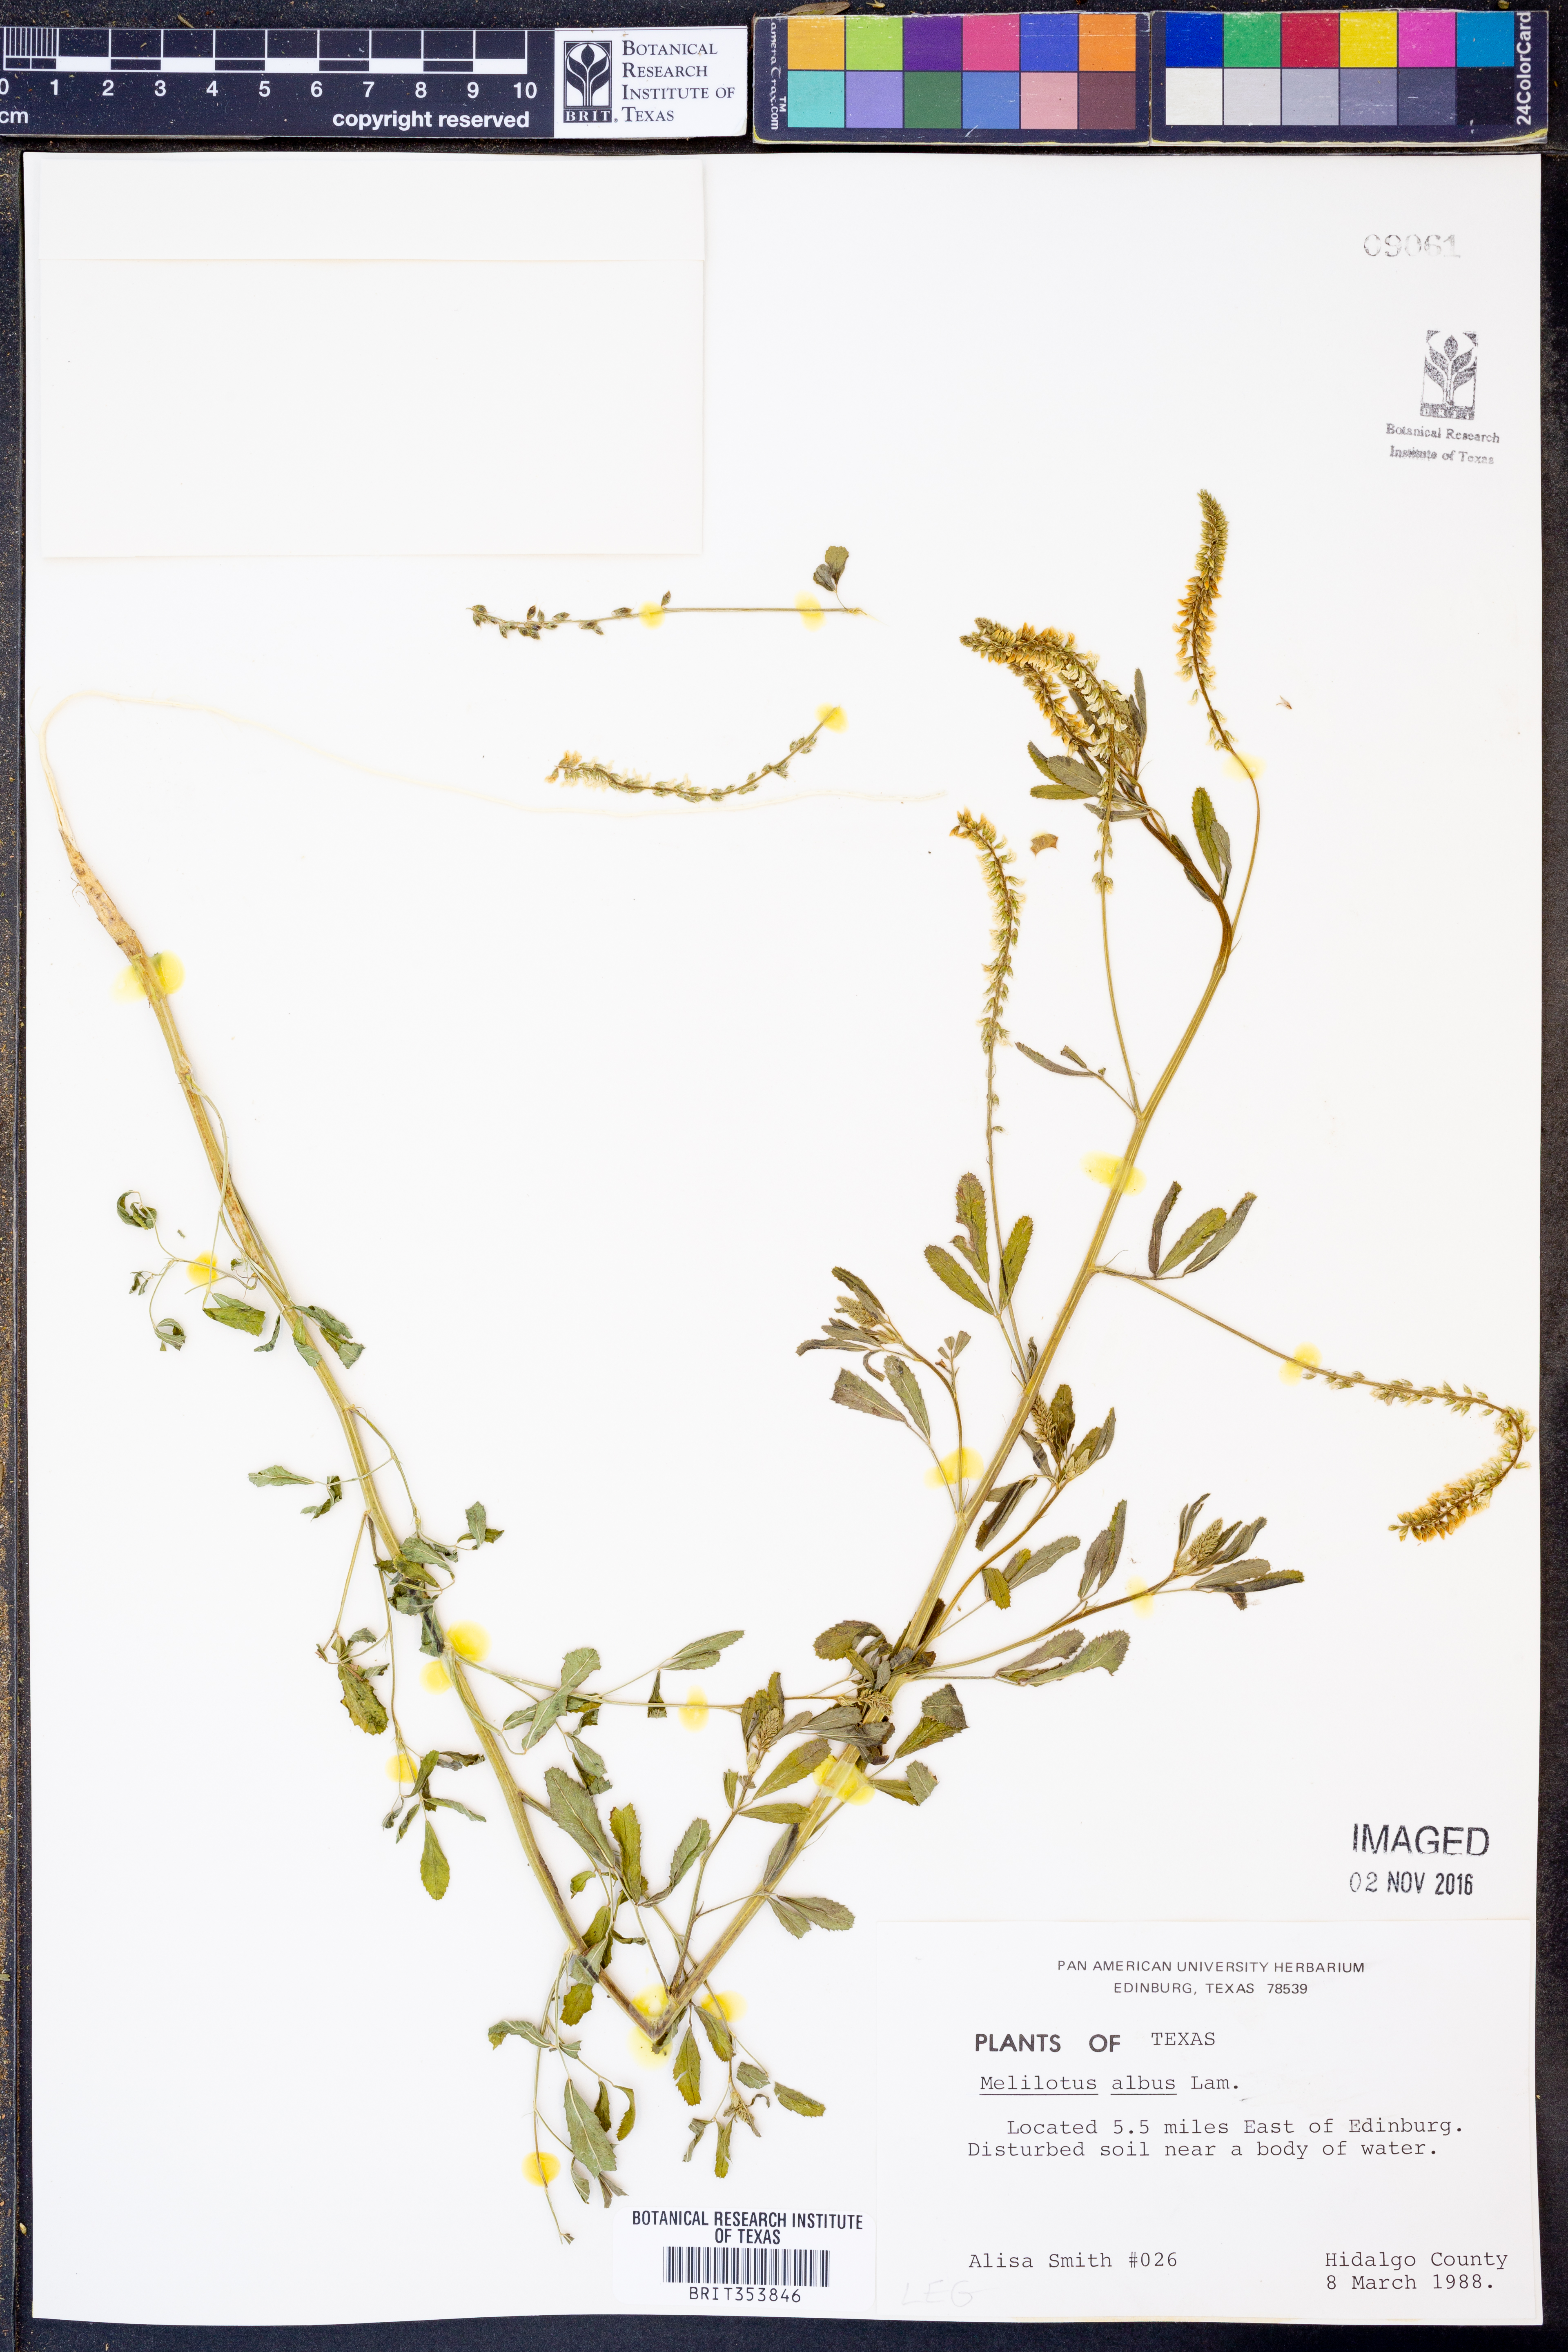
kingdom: Plantae
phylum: Tracheophyta
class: Magnoliopsida
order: Fabales
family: Fabaceae
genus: Melilotus
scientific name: Melilotus albus
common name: White melilot
